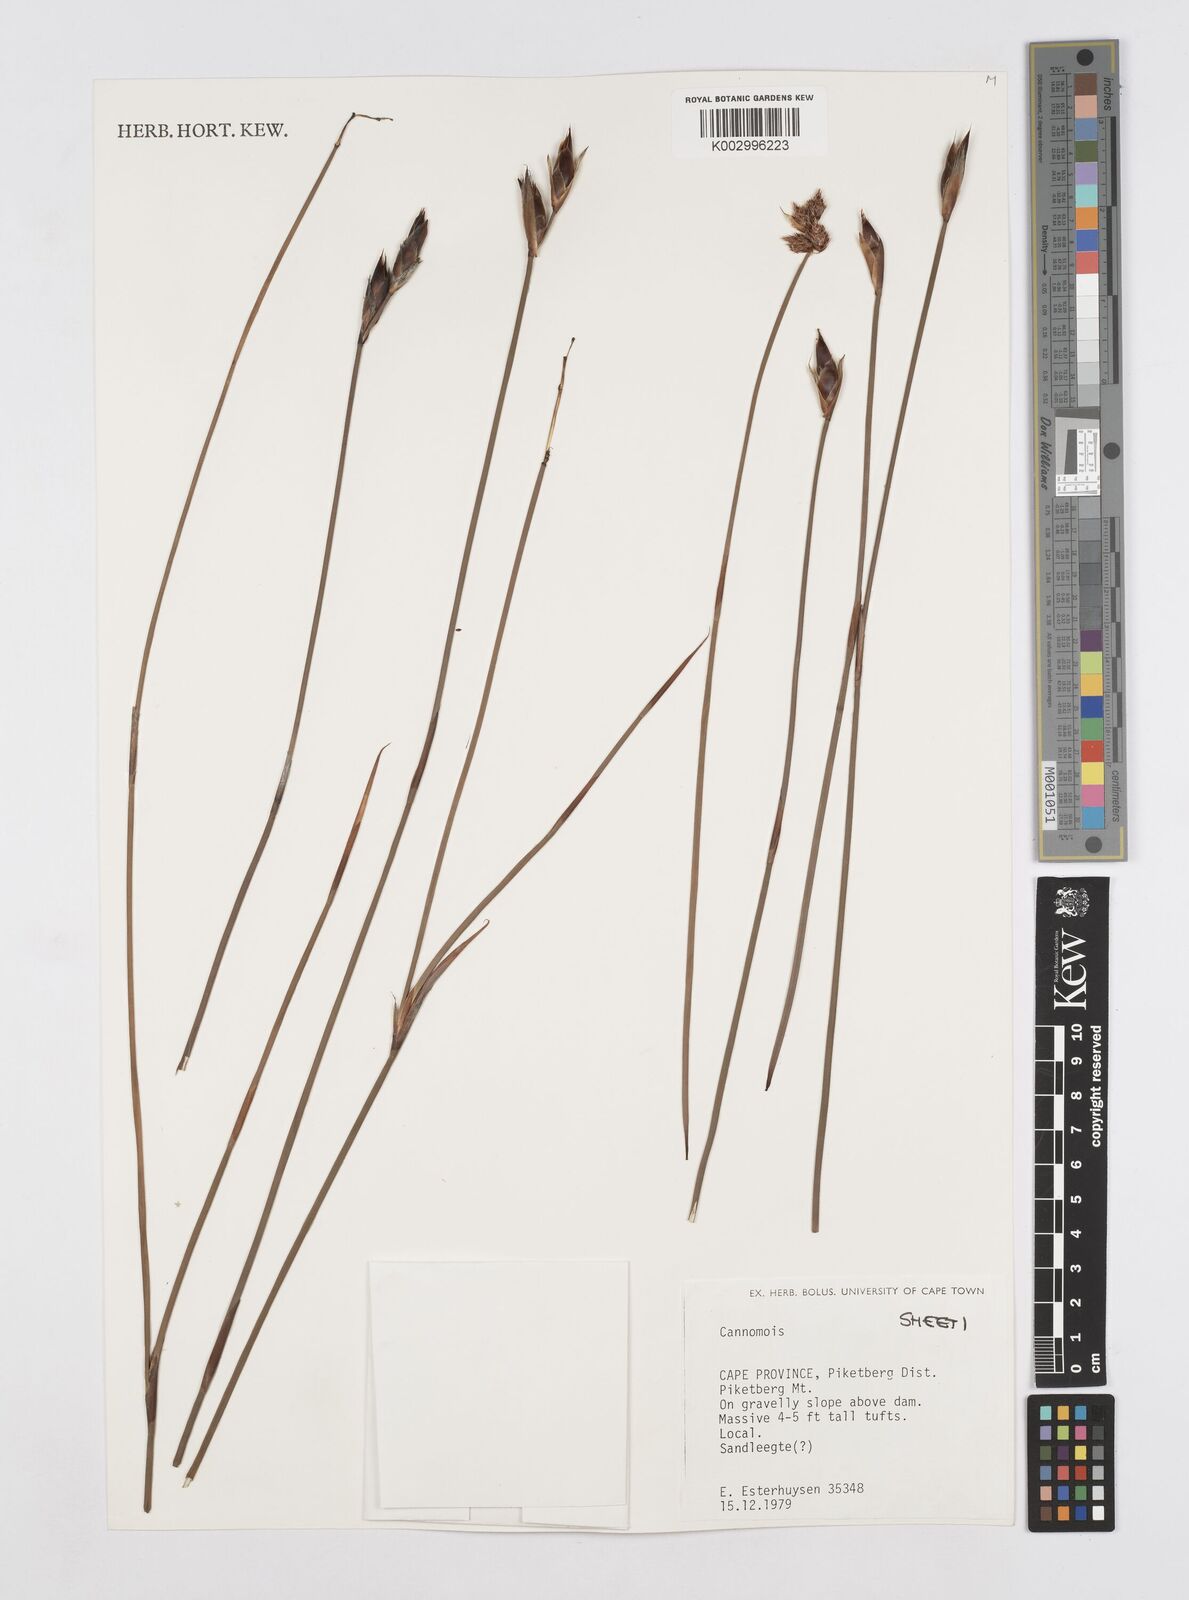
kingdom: Plantae
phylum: Tracheophyta
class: Liliopsida
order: Poales
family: Restionaceae
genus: Cannomois
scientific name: Cannomois
